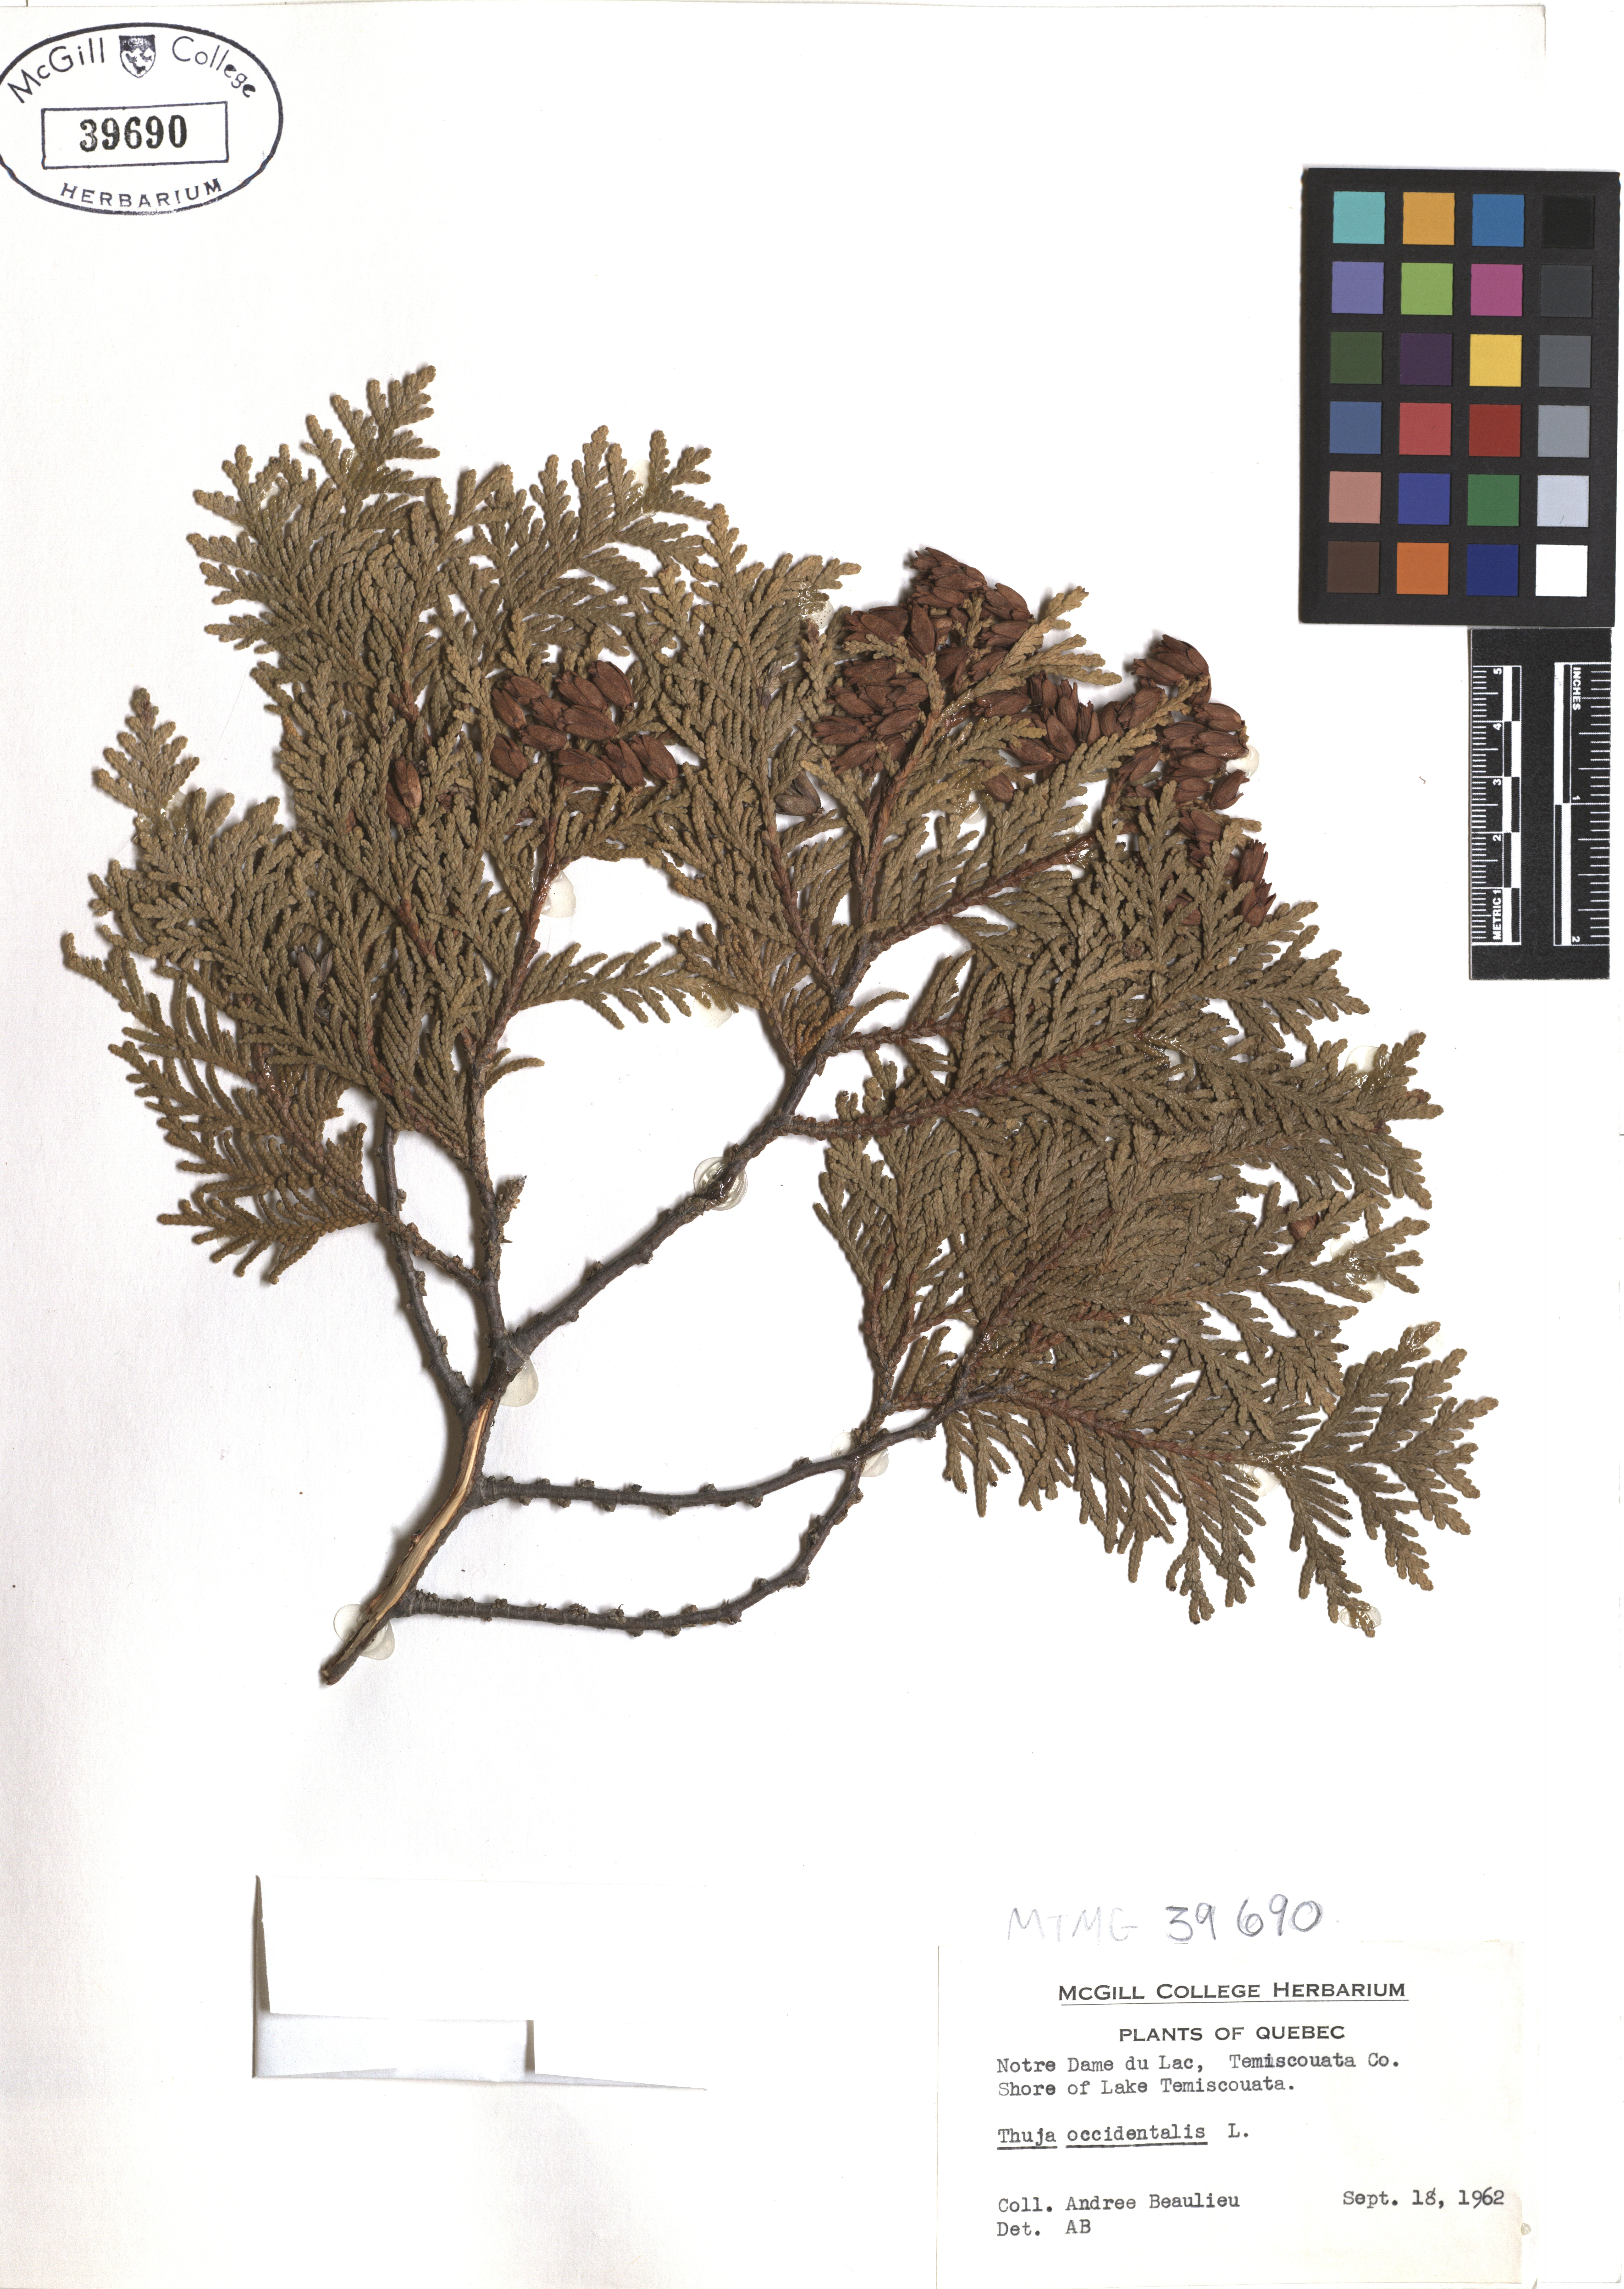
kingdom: Plantae
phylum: Tracheophyta
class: Pinopsida
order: Pinales
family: Cupressaceae
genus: Thuja
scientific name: Thuja occidentalis
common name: Northern white-cedar
